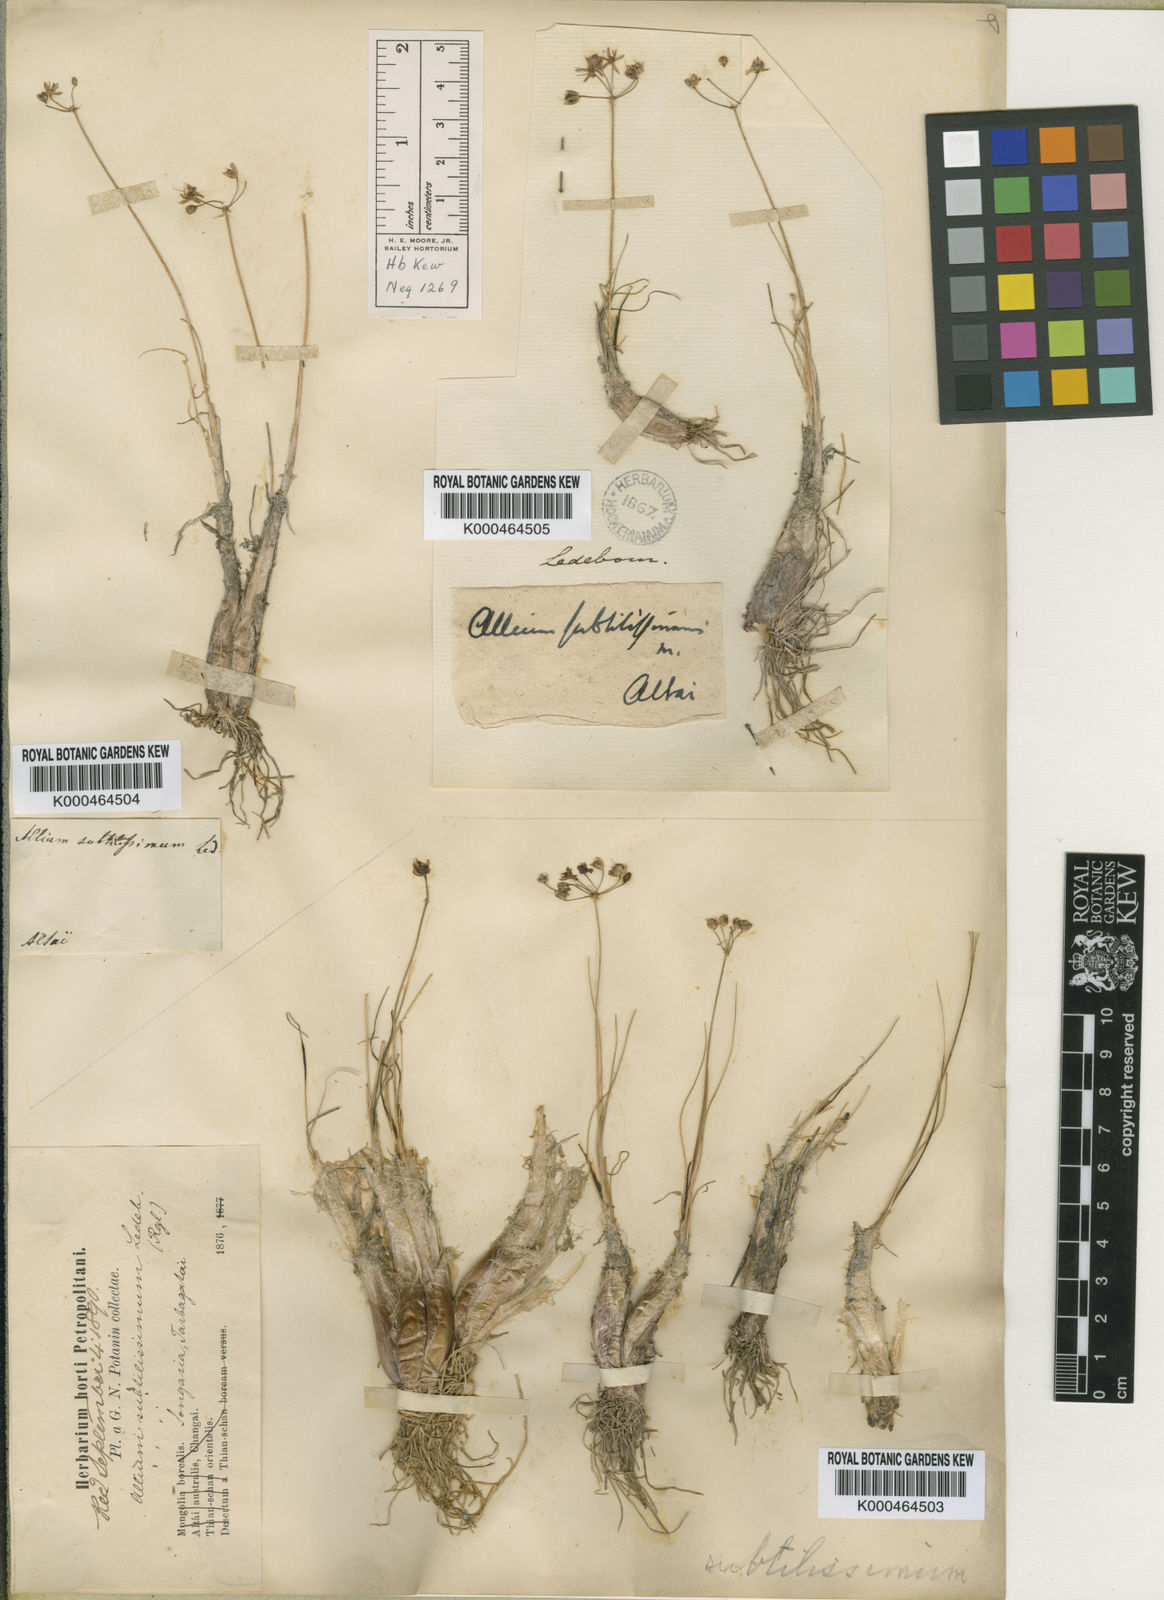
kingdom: Plantae
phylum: Tracheophyta
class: Liliopsida
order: Asparagales
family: Amaryllidaceae
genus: Allium
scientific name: Allium subtilissimum
